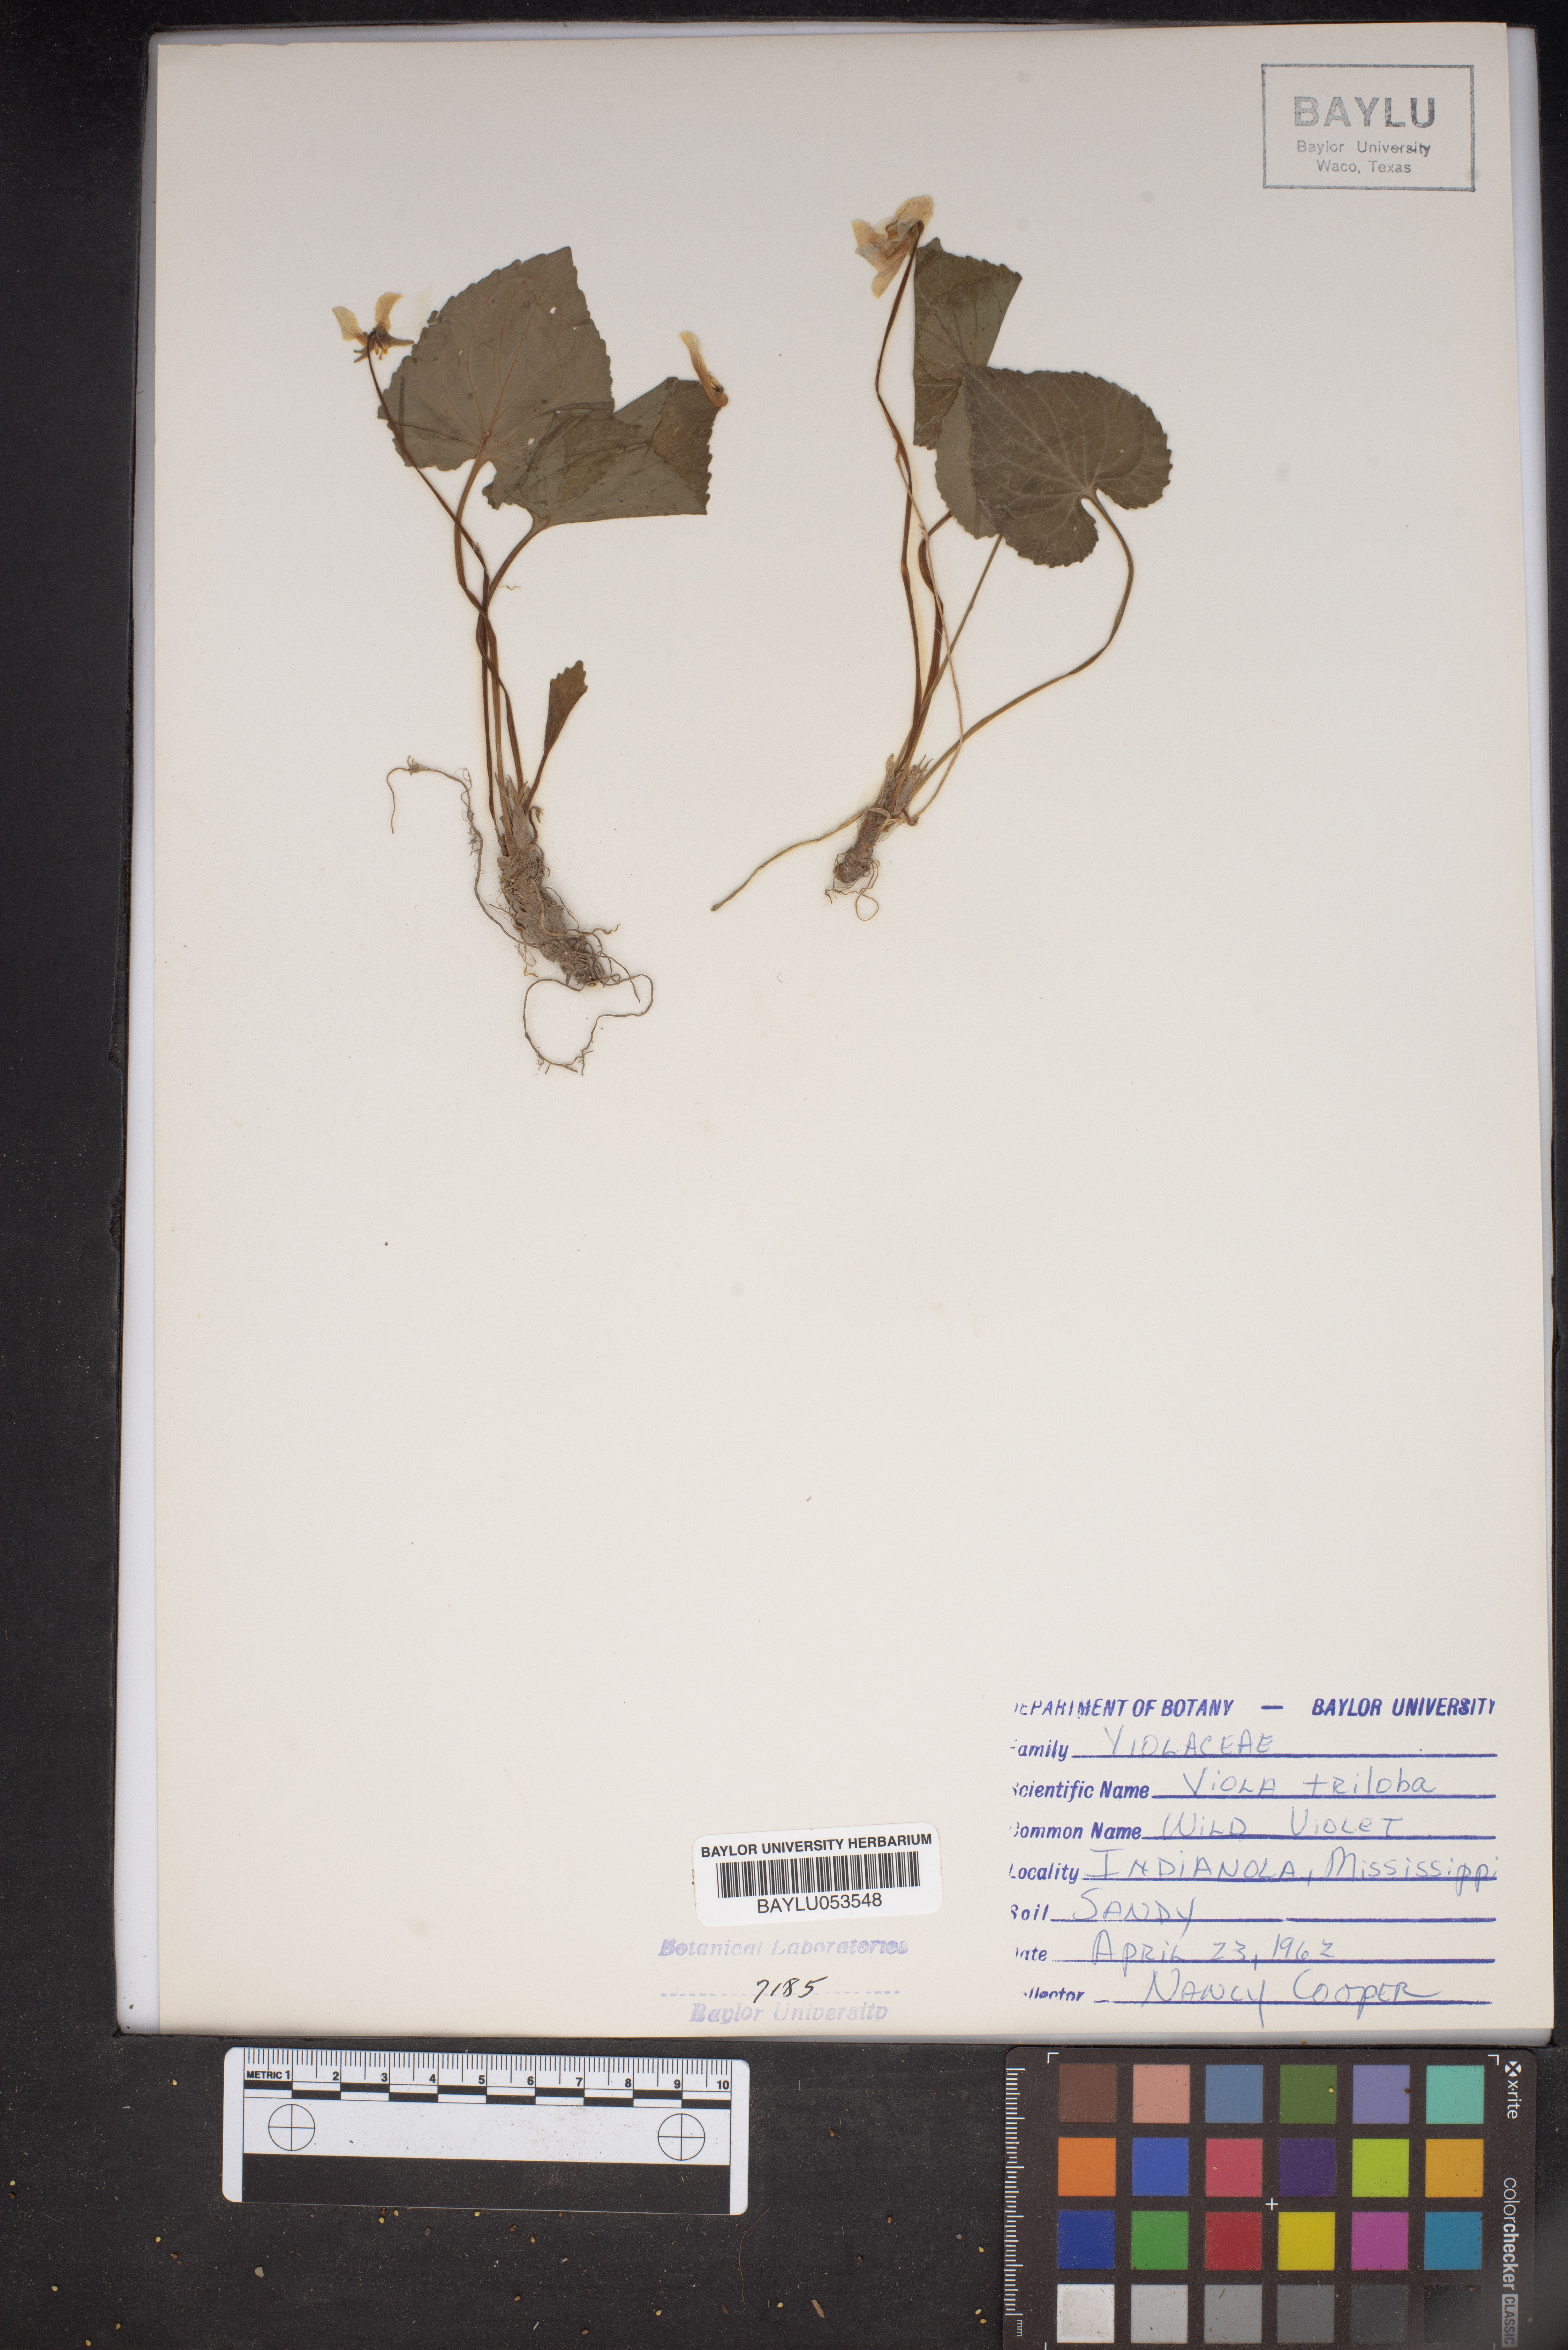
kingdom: Plantae
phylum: Tracheophyta
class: Magnoliopsida
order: Malpighiales
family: Violaceae
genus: Viola
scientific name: Viola palmata
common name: Early blue violet
